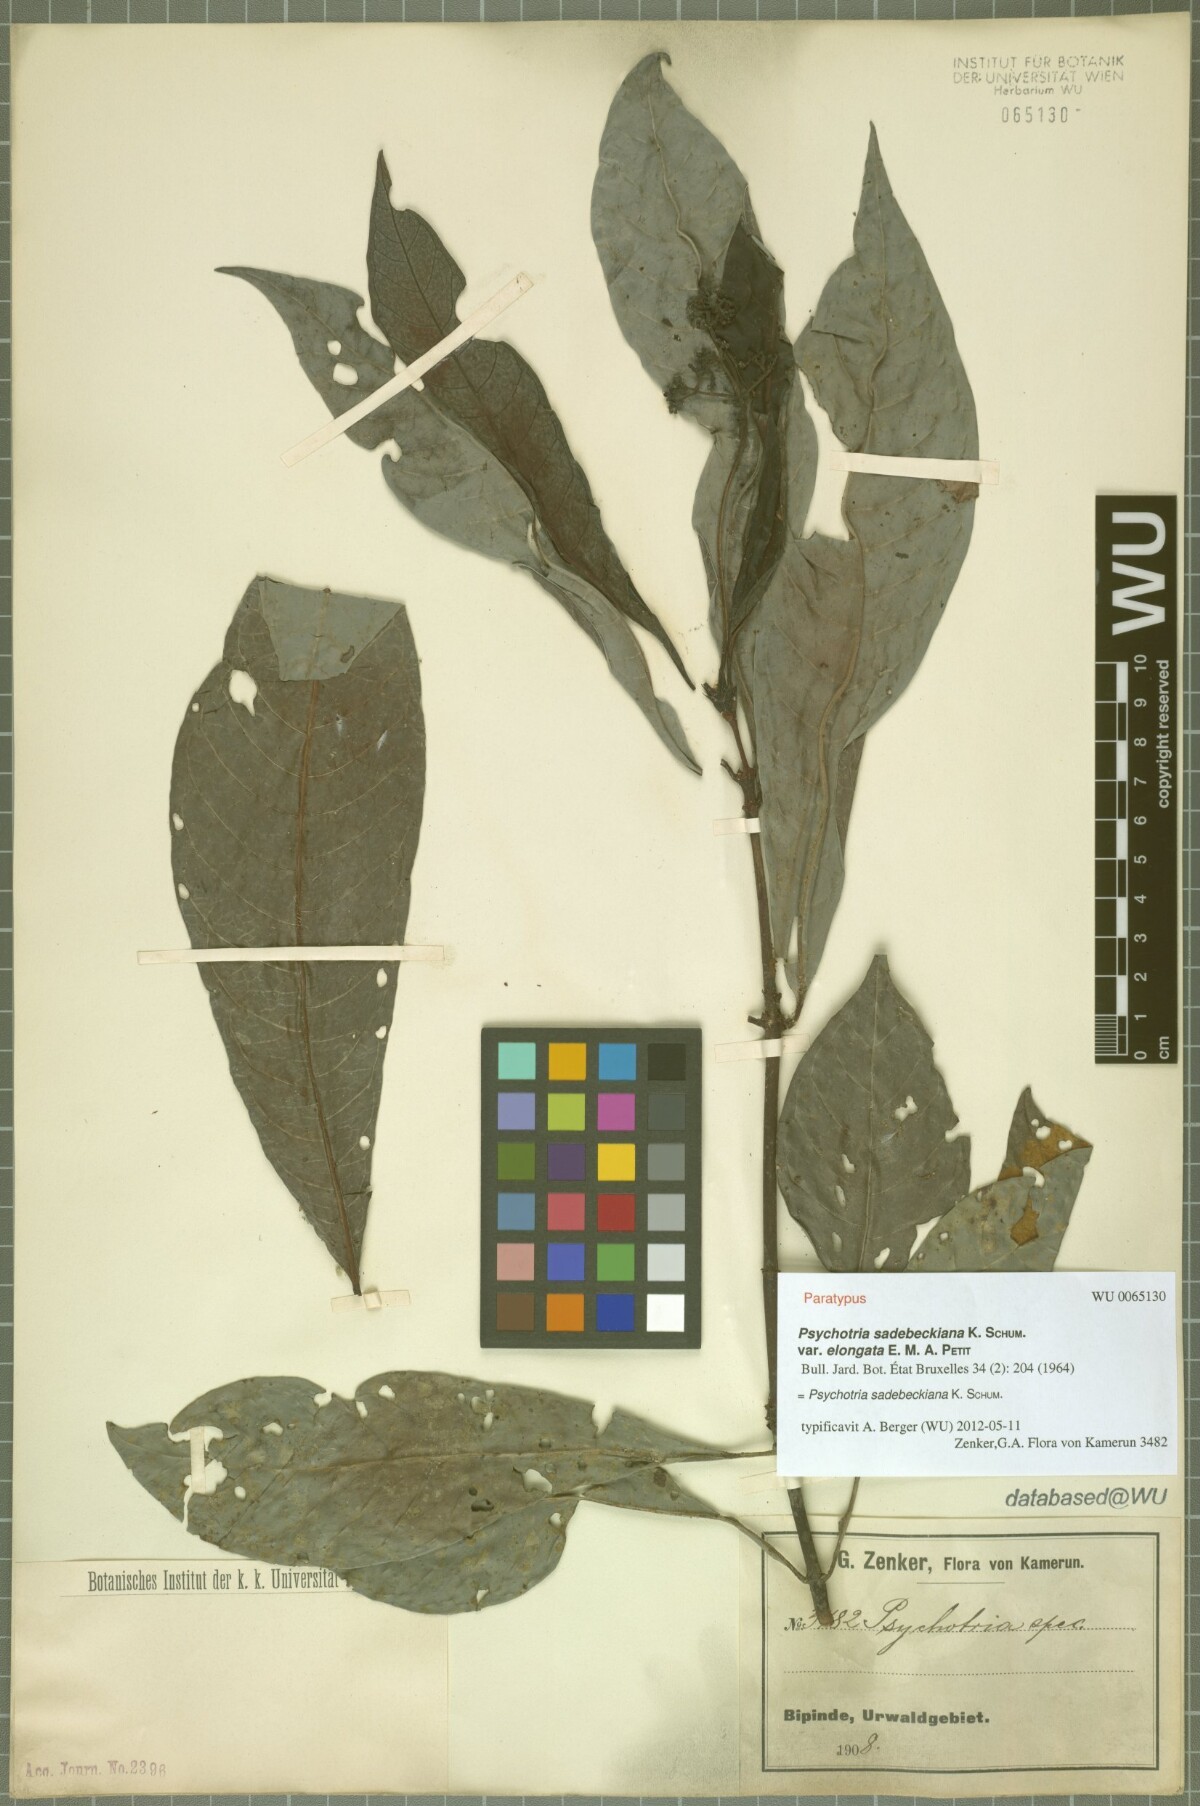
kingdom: Plantae
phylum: Tracheophyta
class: Magnoliopsida
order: Gentianales
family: Rubiaceae
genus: Psychotria
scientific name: Psychotria sadebeckiana
